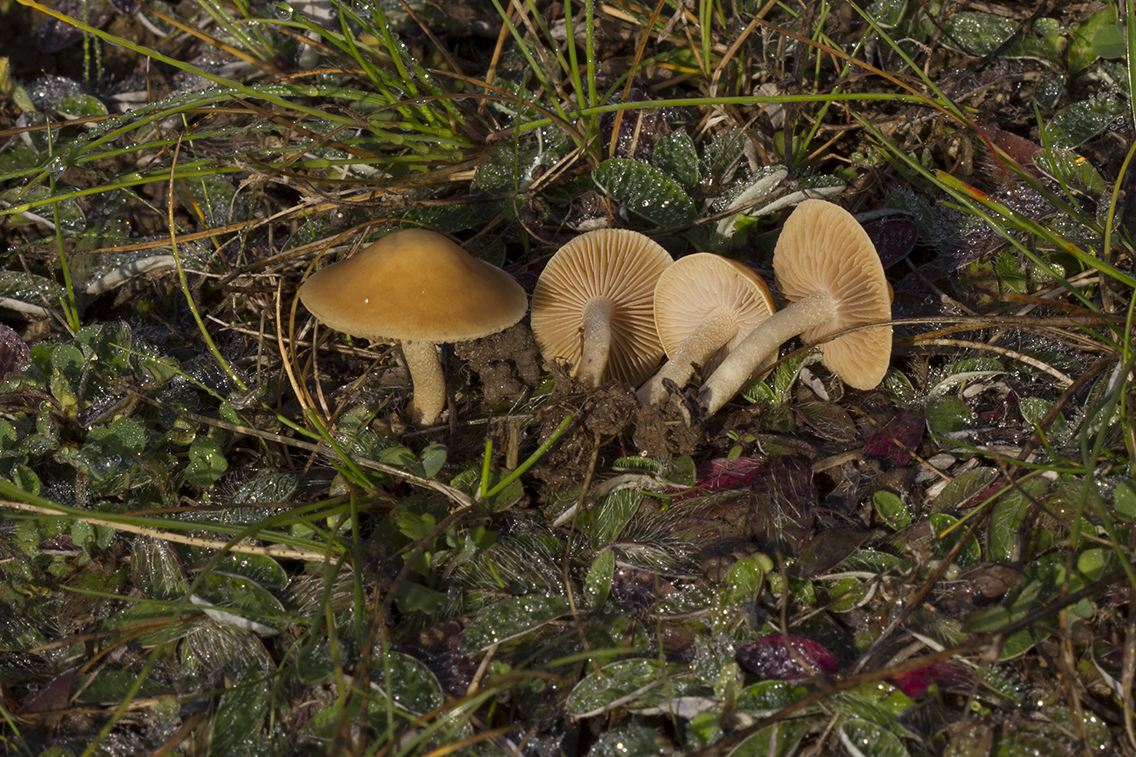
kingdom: Fungi
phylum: Basidiomycota
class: Agaricomycetes
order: Agaricales
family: Strophariaceae
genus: Agrocybe
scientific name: Agrocybe vervacti
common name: lav agerhat
